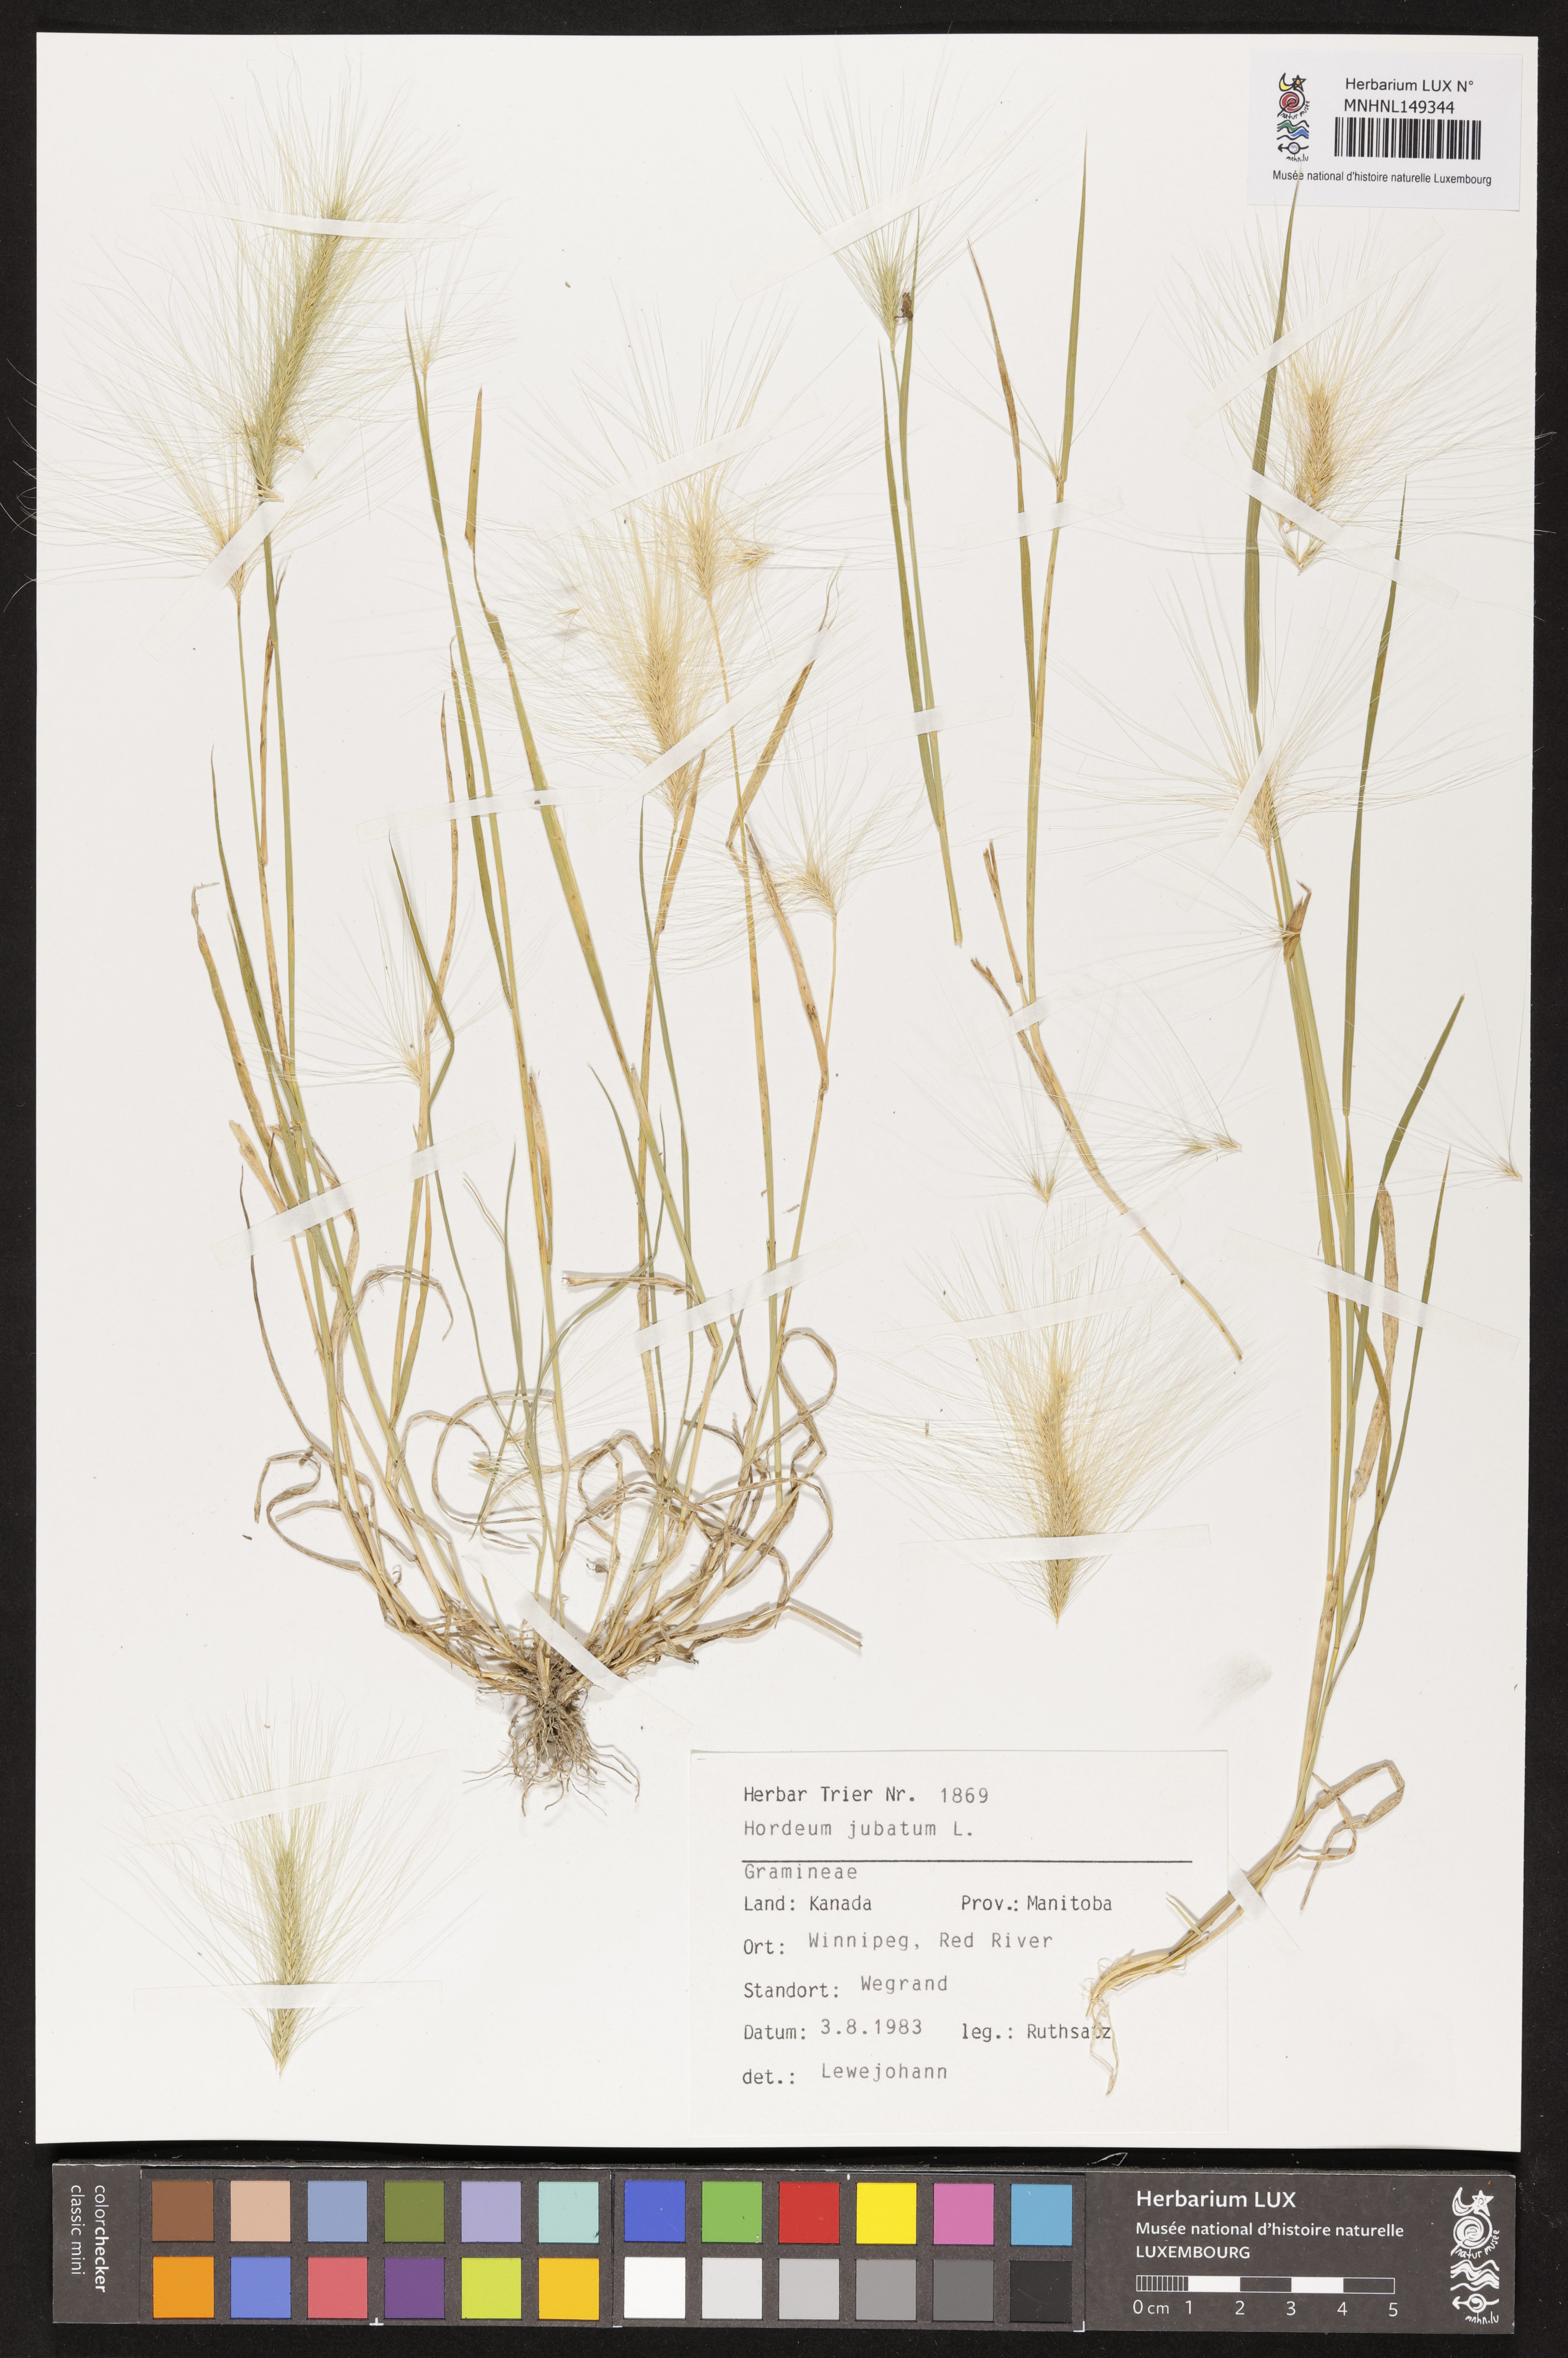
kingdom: Plantae
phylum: Tracheophyta
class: Liliopsida
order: Poales
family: Poaceae
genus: Hordeum
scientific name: Hordeum jubatum
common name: Foxtail barley
